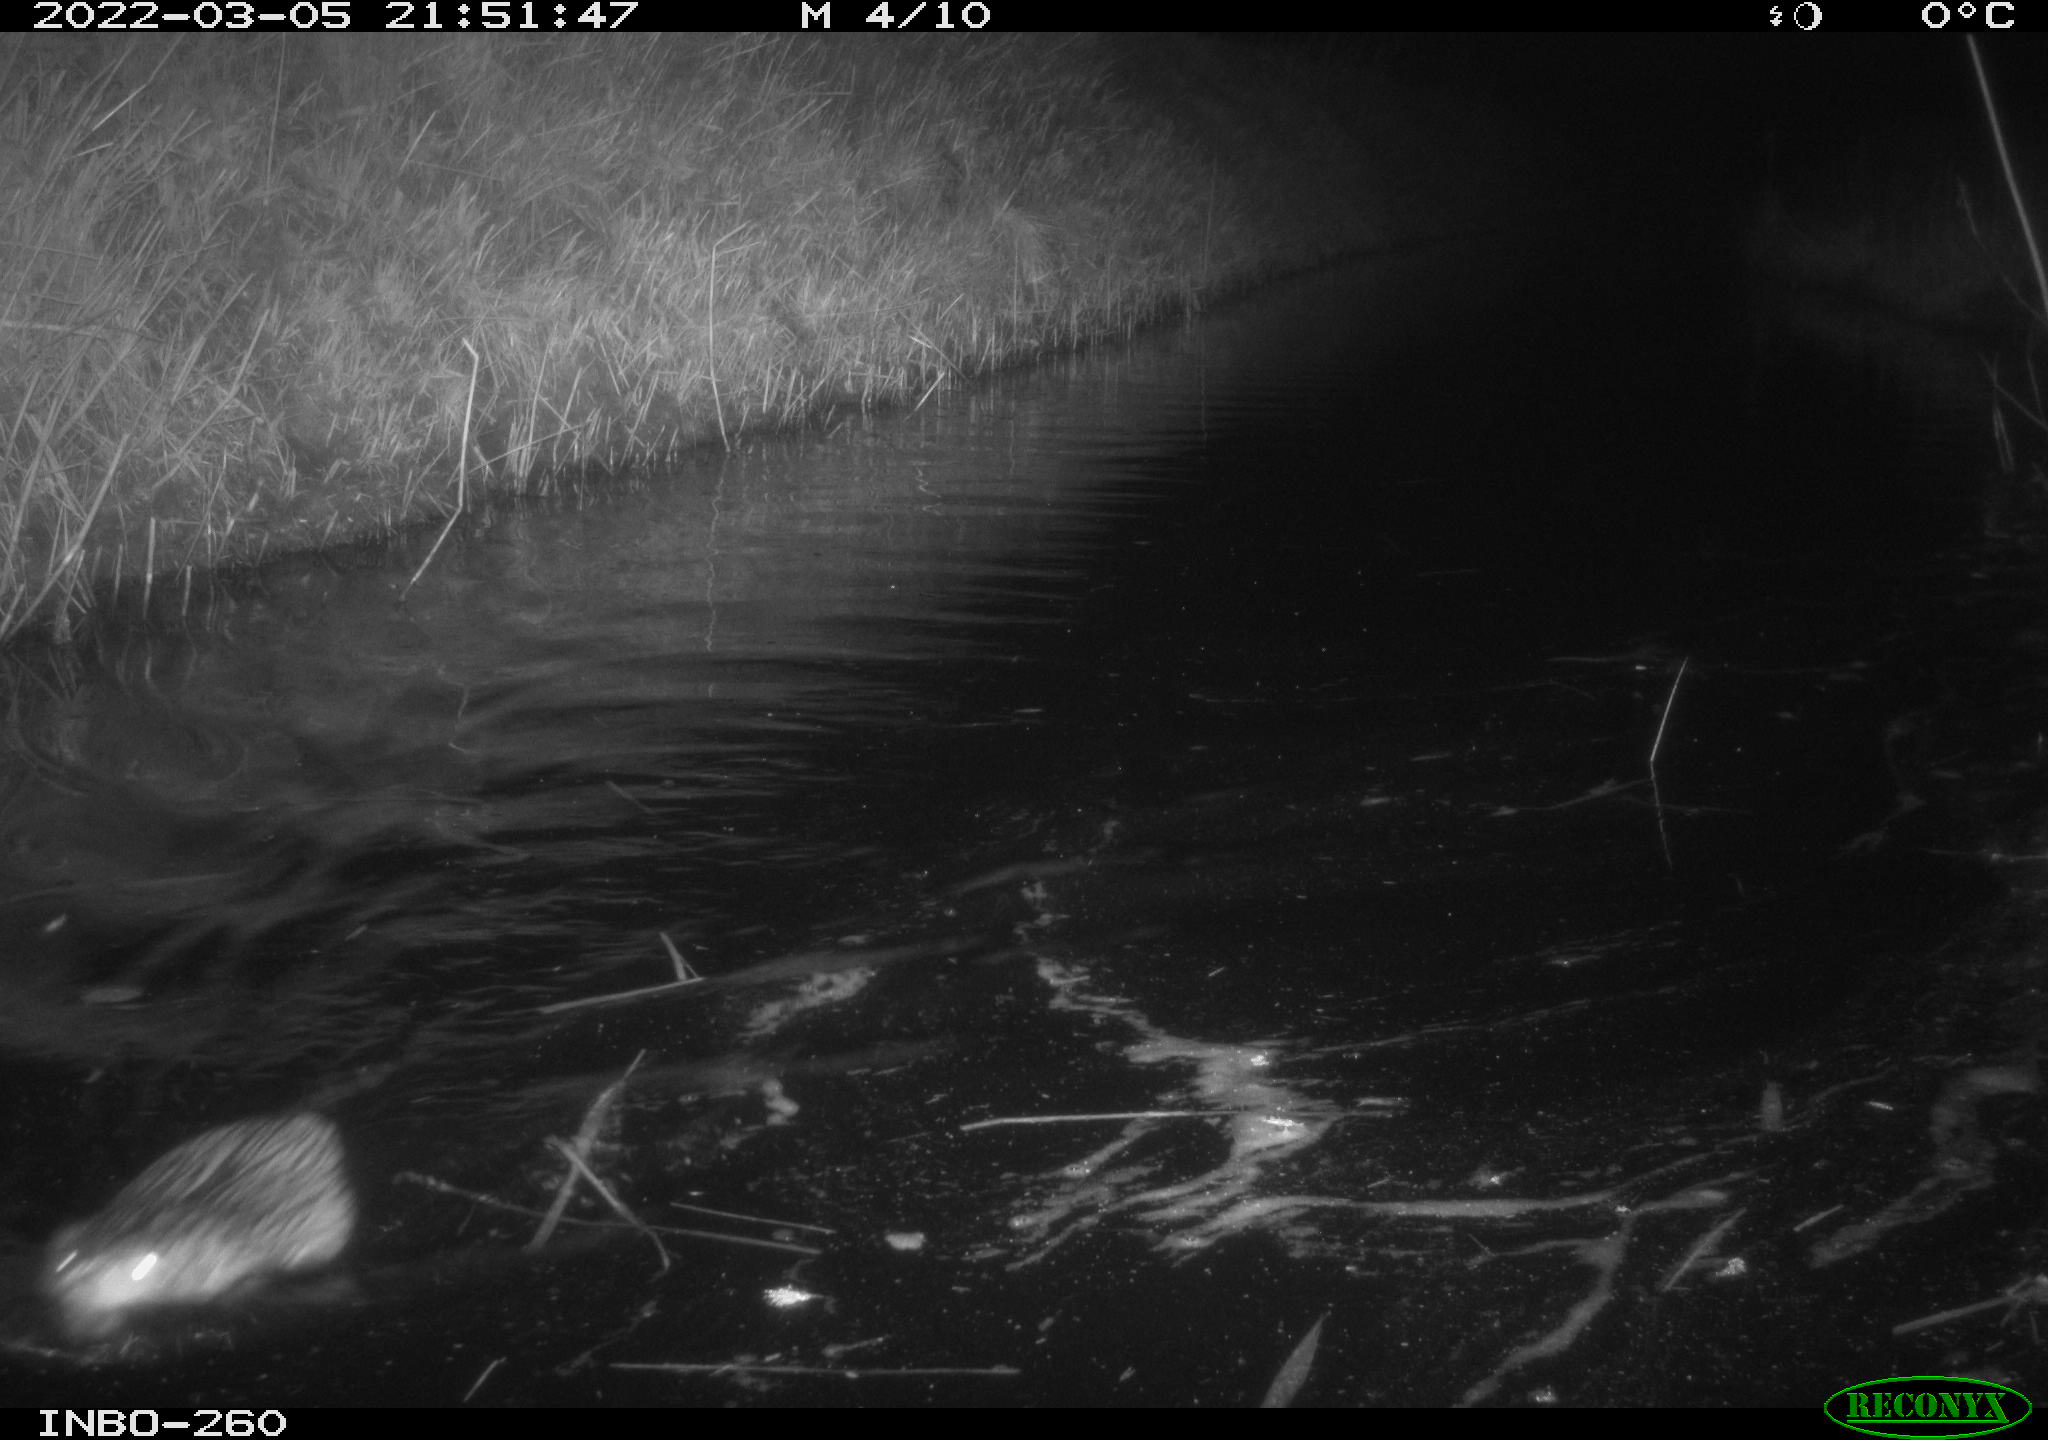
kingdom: Animalia
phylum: Chordata
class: Mammalia
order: Rodentia
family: Cricetidae
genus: Ondatra
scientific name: Ondatra zibethicus
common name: Muskrat
